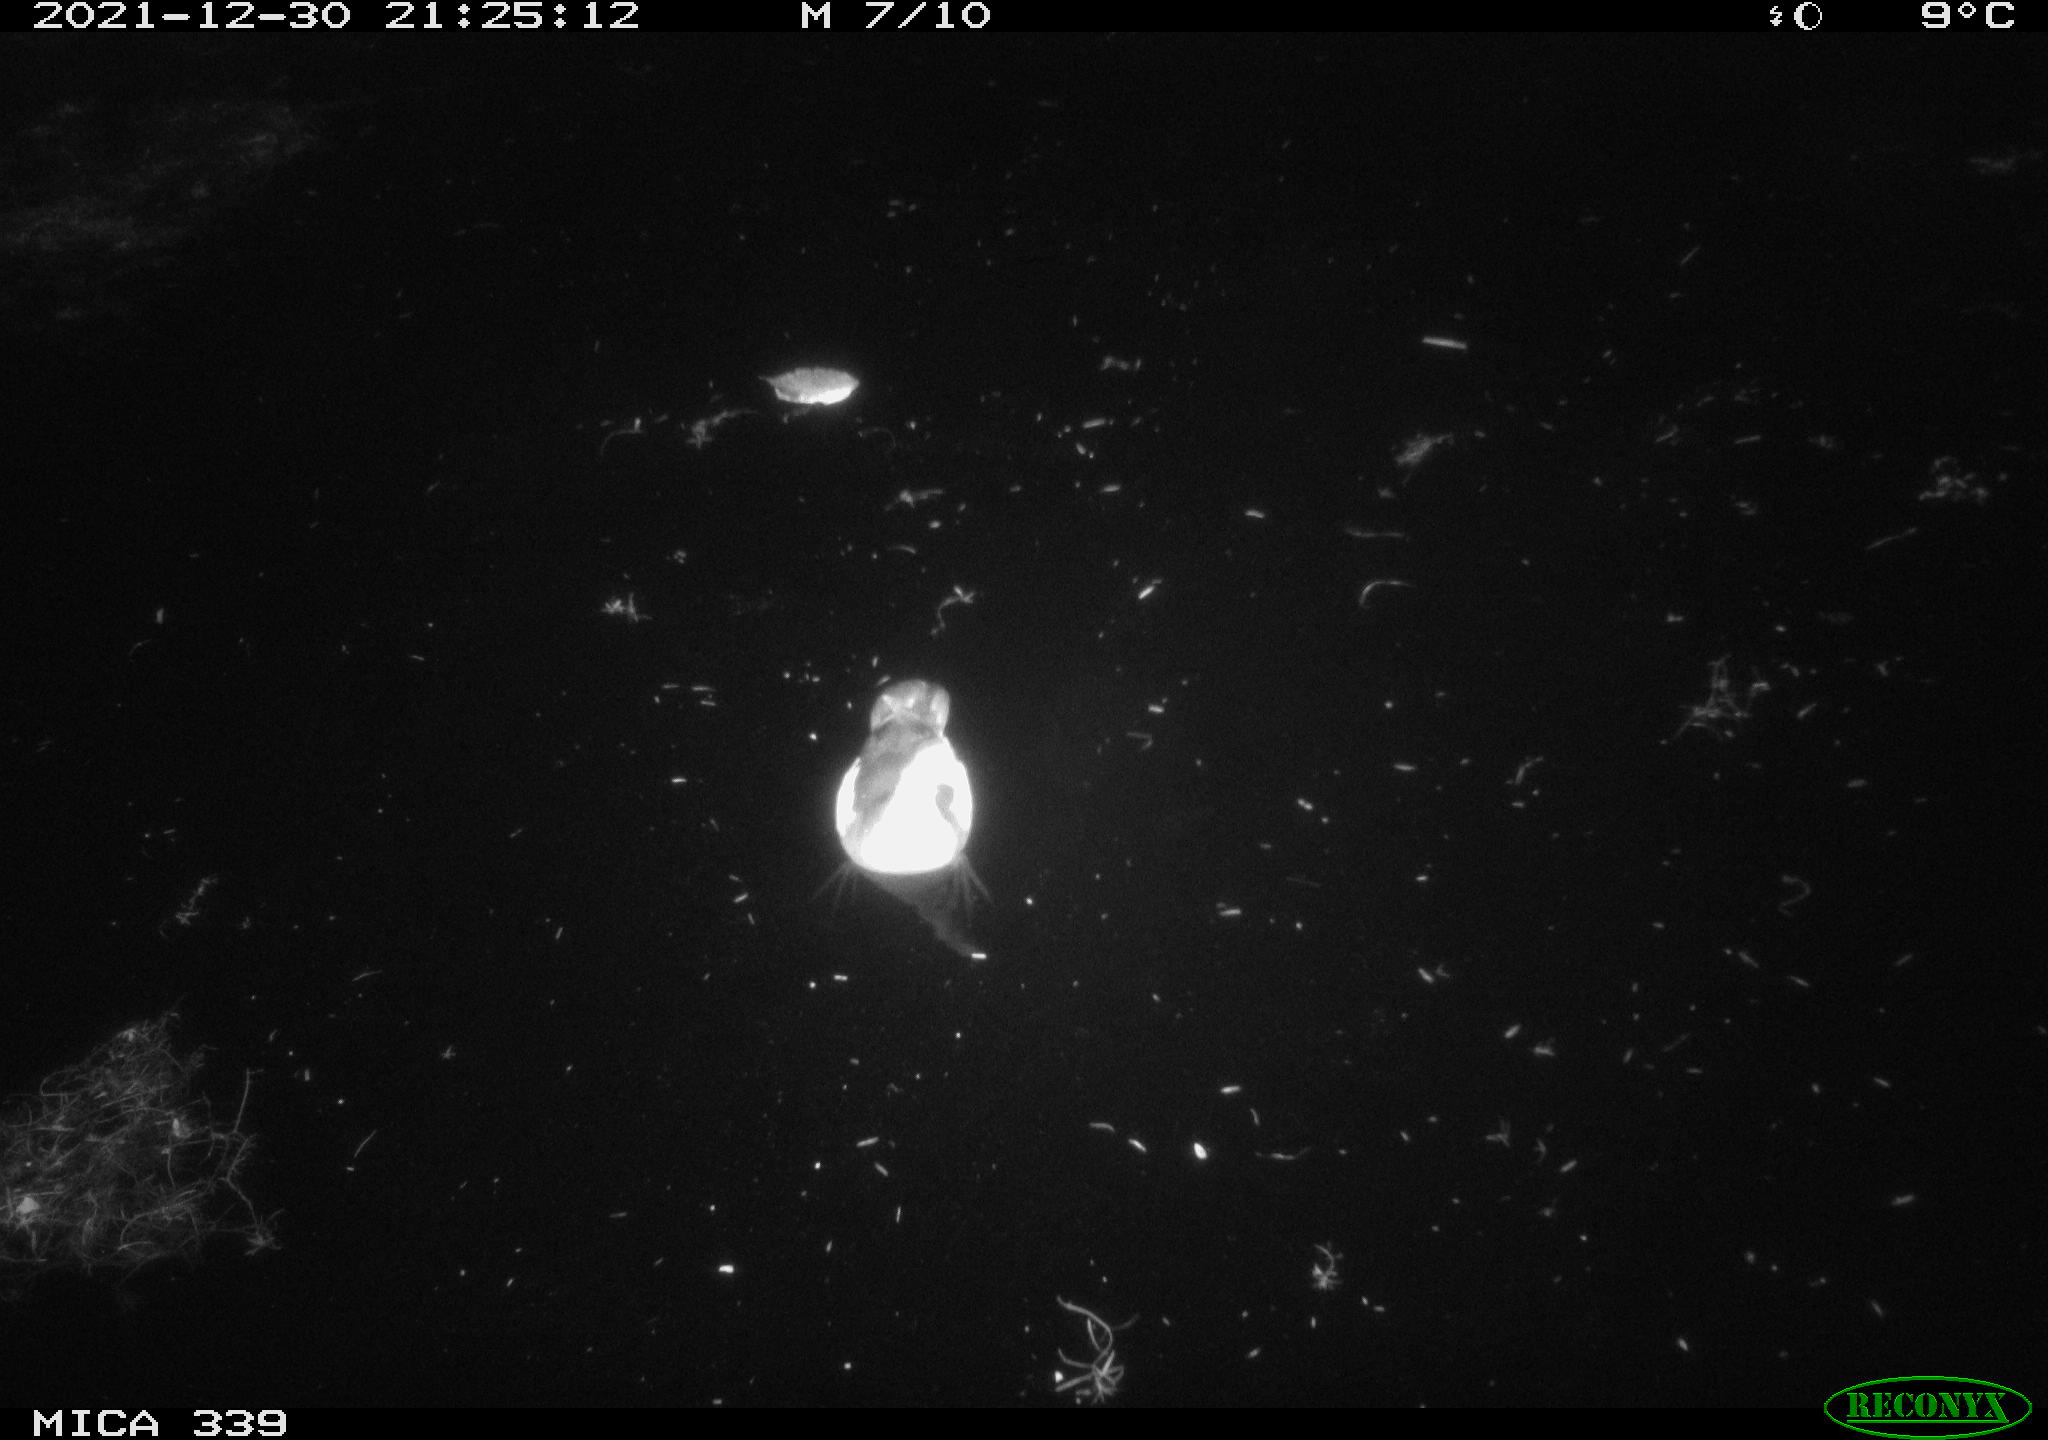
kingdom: Animalia
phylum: Chordata
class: Aves
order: Gruiformes
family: Rallidae
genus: Gallinula
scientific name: Gallinula chloropus
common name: Common moorhen
